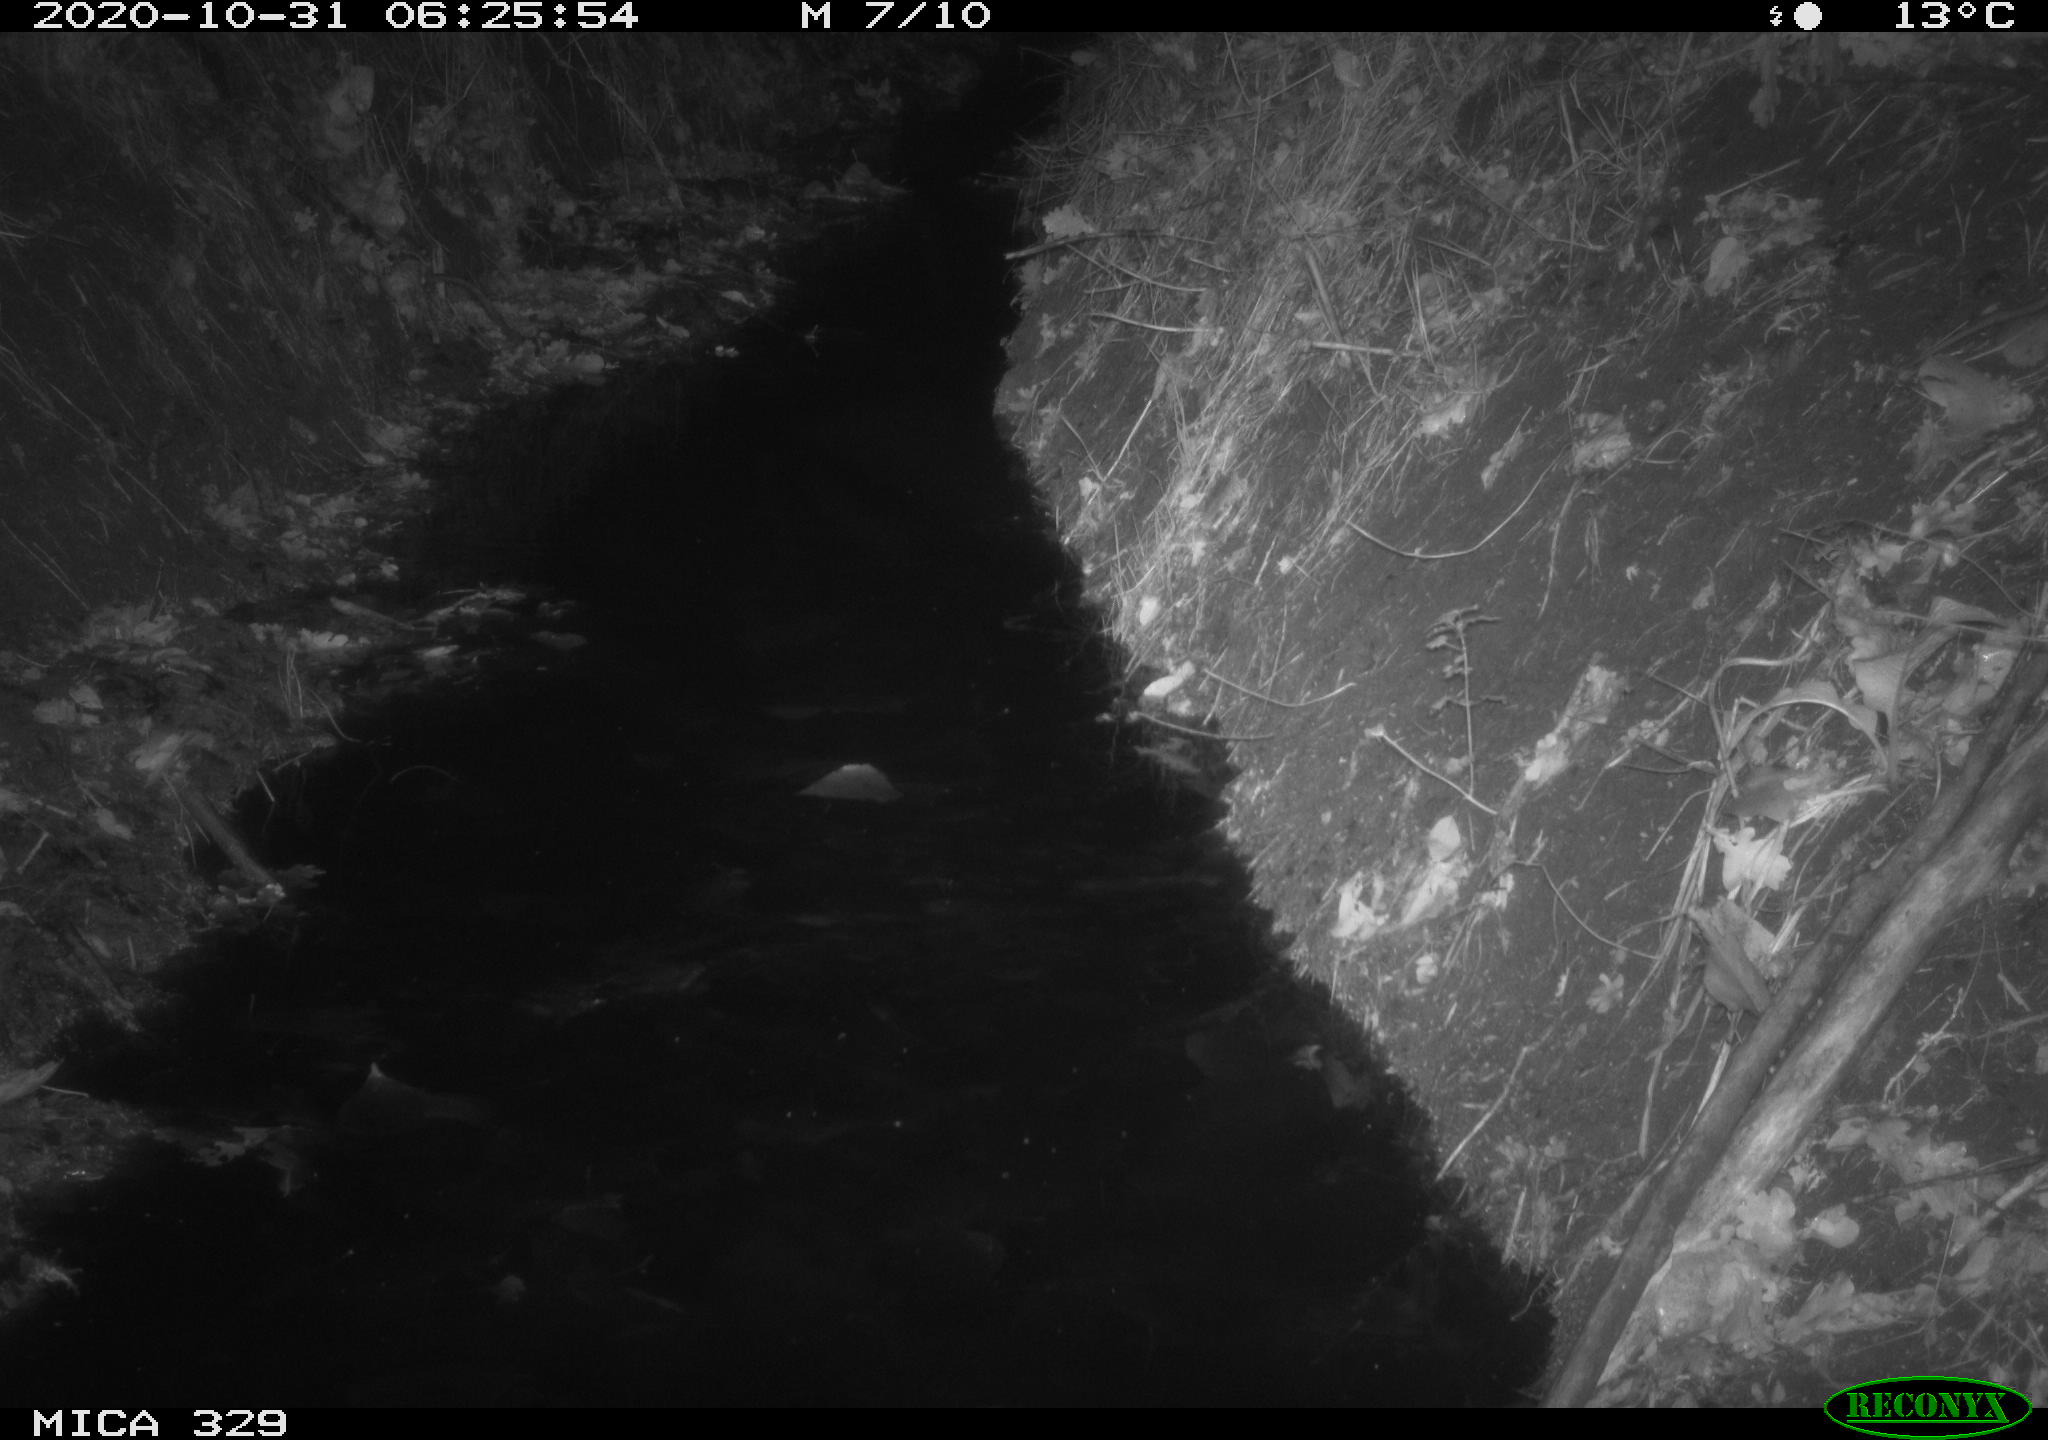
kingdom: Animalia
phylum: Chordata
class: Mammalia
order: Rodentia
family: Muridae
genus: Rattus
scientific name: Rattus norvegicus
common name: Brown rat
